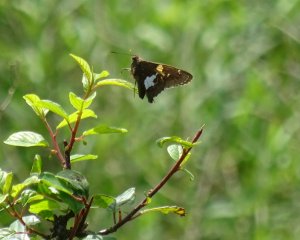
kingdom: Animalia
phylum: Arthropoda
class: Insecta
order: Lepidoptera
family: Hesperiidae
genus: Epargyreus
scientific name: Epargyreus clarus
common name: Silver-spotted Skipper
